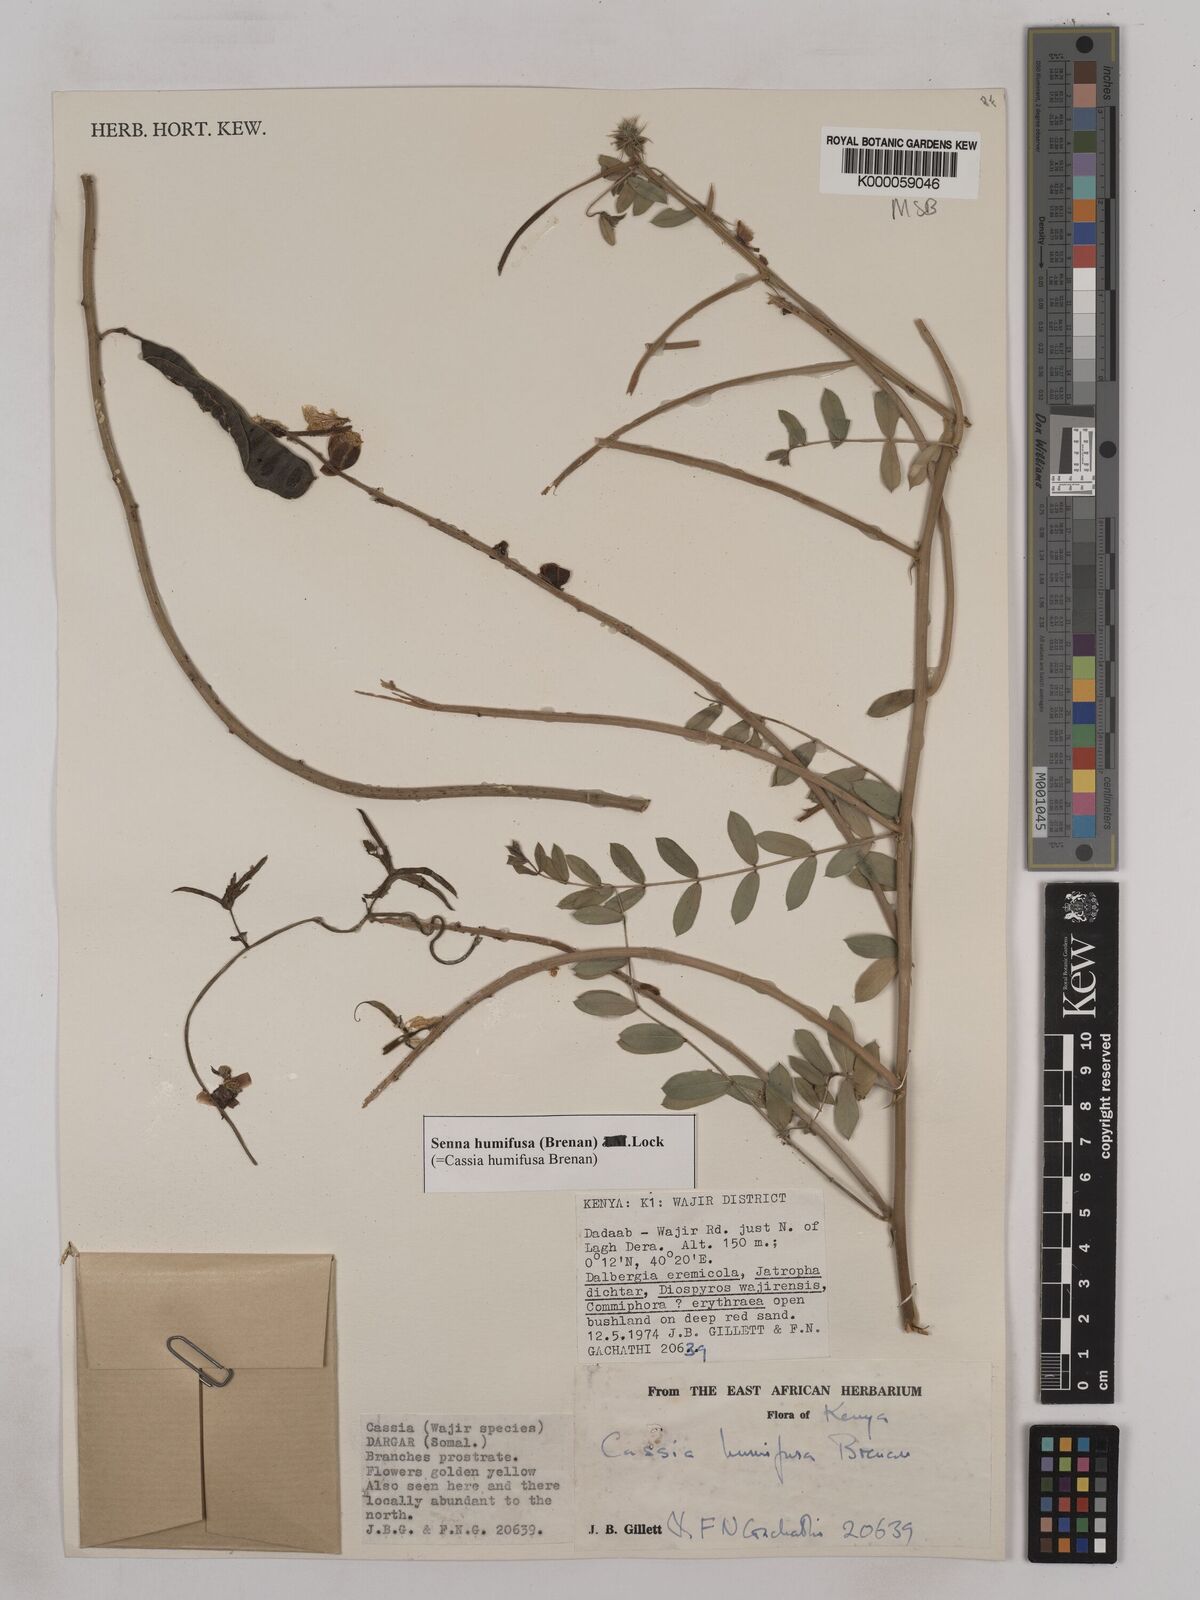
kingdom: Plantae
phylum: Tracheophyta
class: Magnoliopsida
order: Fabales
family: Fabaceae
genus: Senna
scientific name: Senna humifusa
